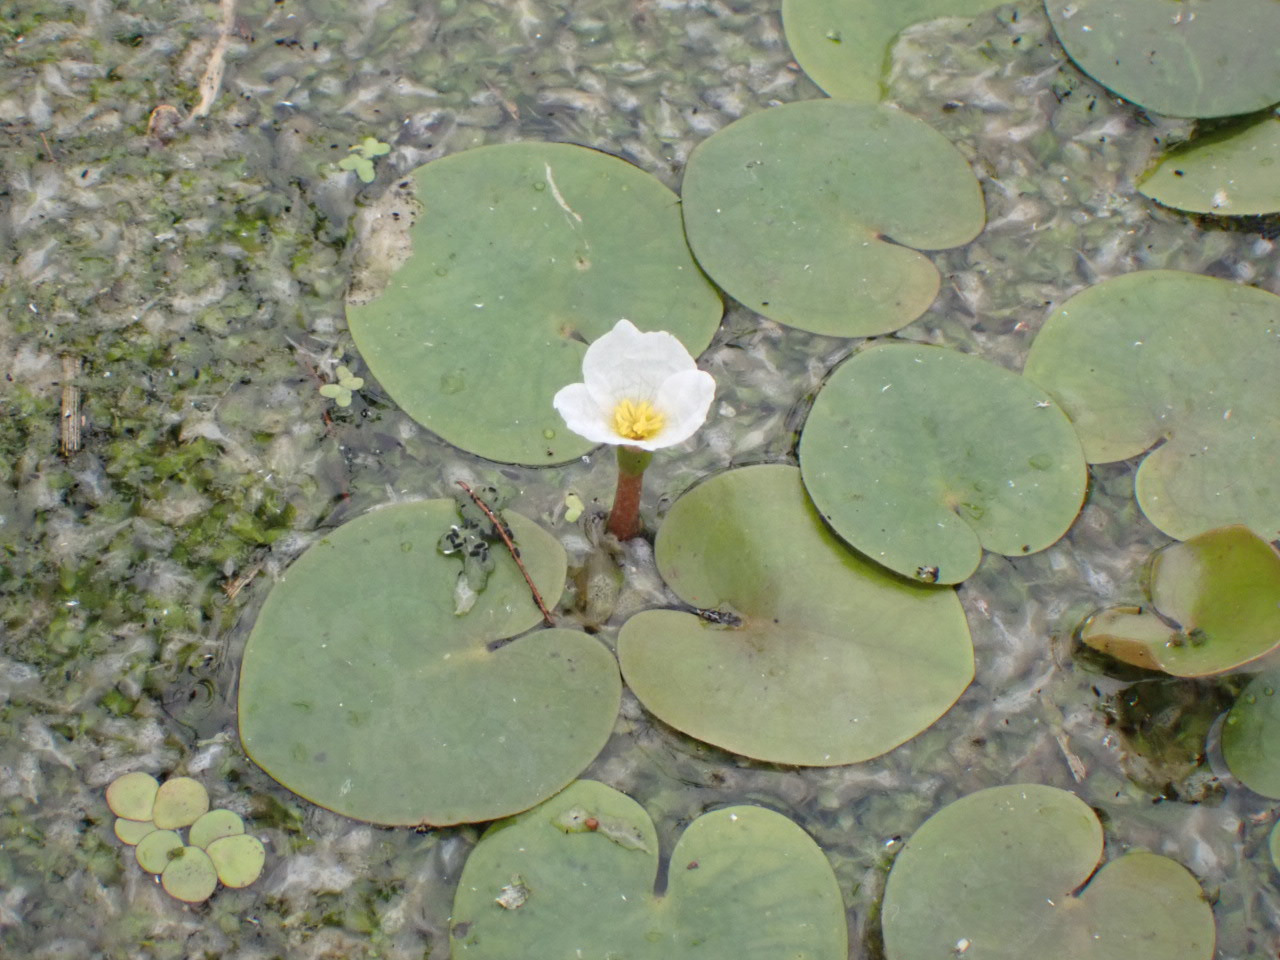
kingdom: Plantae
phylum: Tracheophyta
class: Liliopsida
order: Alismatales
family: Hydrocharitaceae
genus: Hydrocharis
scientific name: Hydrocharis morsus-ranae
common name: Frøbid
